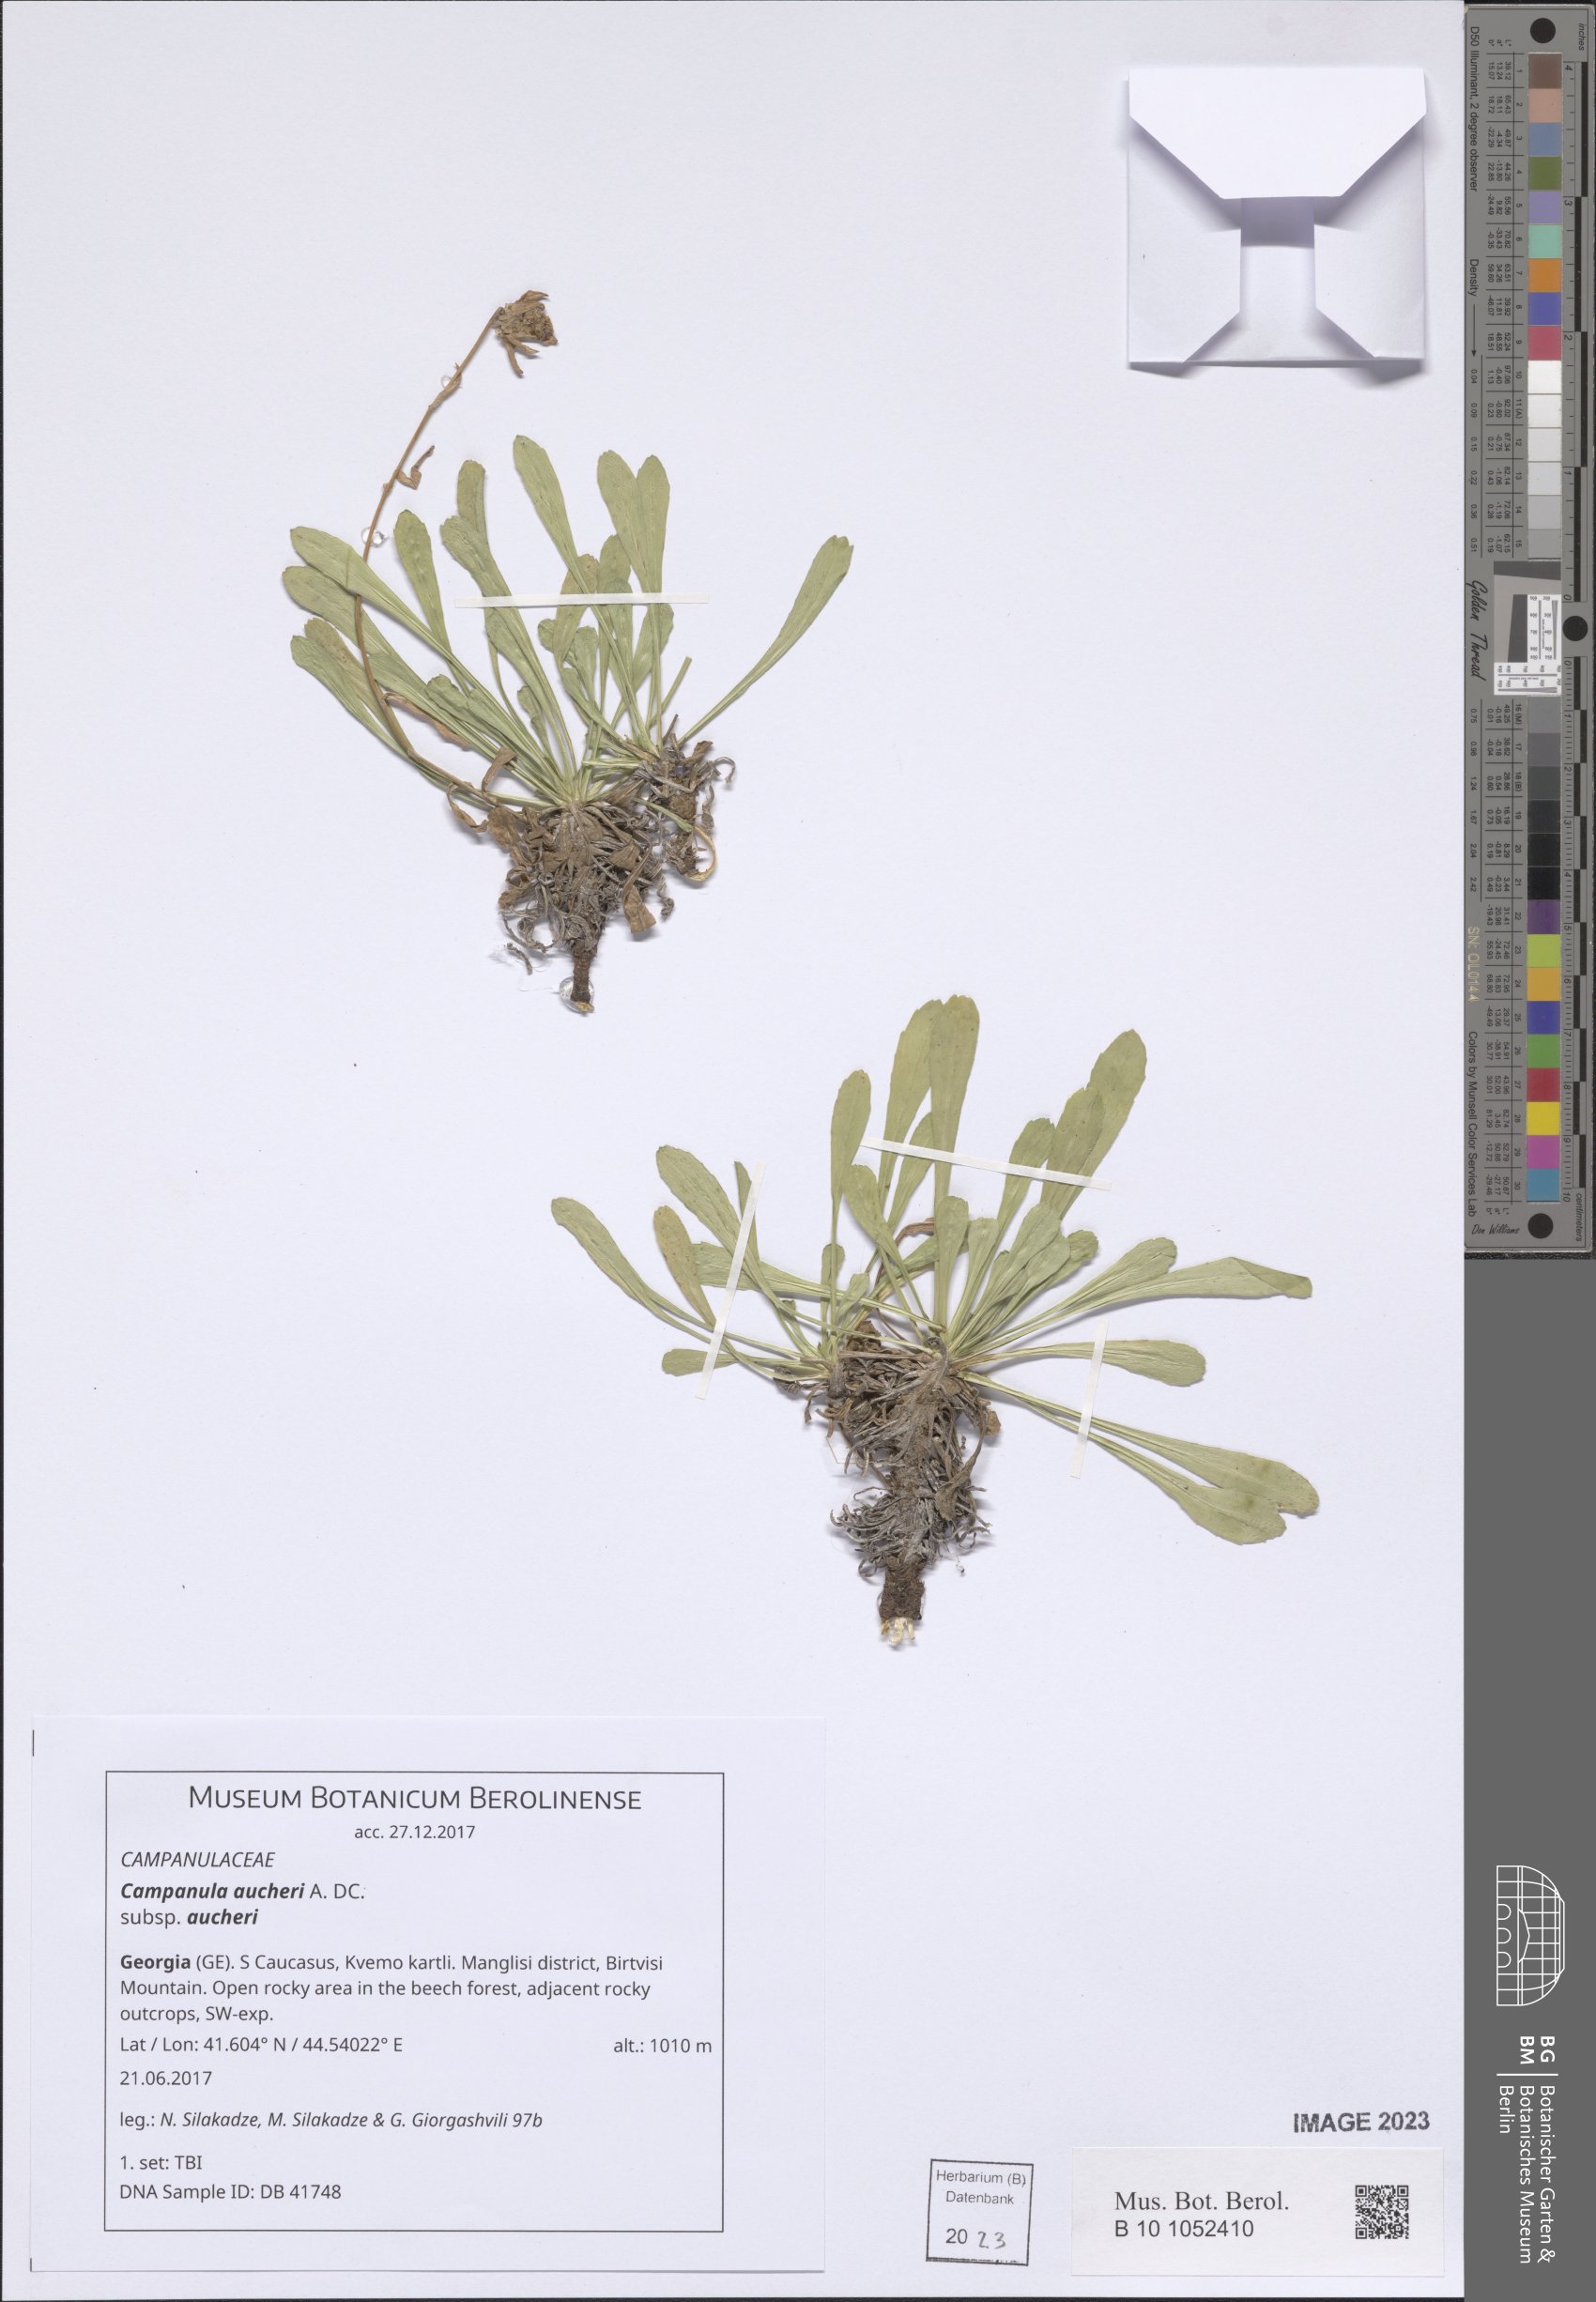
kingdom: Plantae
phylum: Tracheophyta
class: Magnoliopsida
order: Asterales
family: Campanulaceae
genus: Campanula
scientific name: Campanula saxifraga
